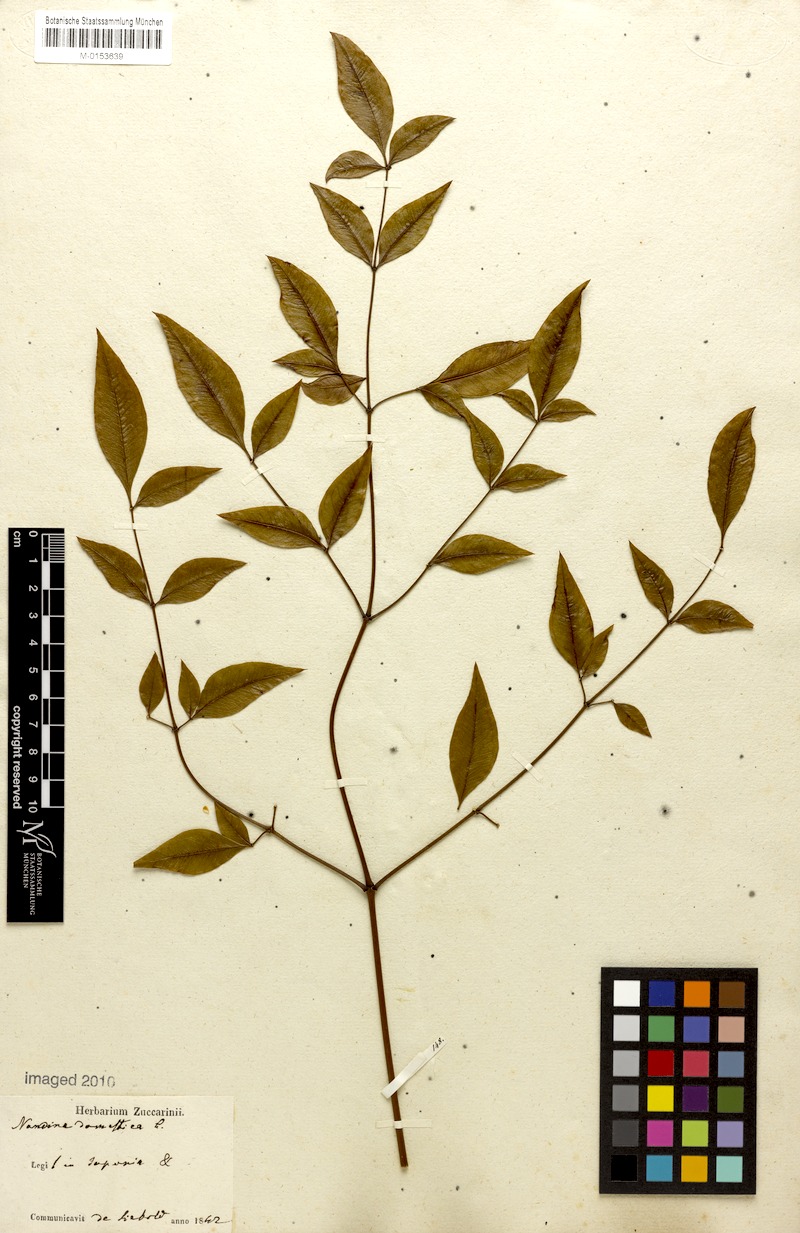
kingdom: Plantae
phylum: Tracheophyta
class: Magnoliopsida
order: Ranunculales
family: Berberidaceae
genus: Nandina
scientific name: Nandina domestica
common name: Sacred bamboo
